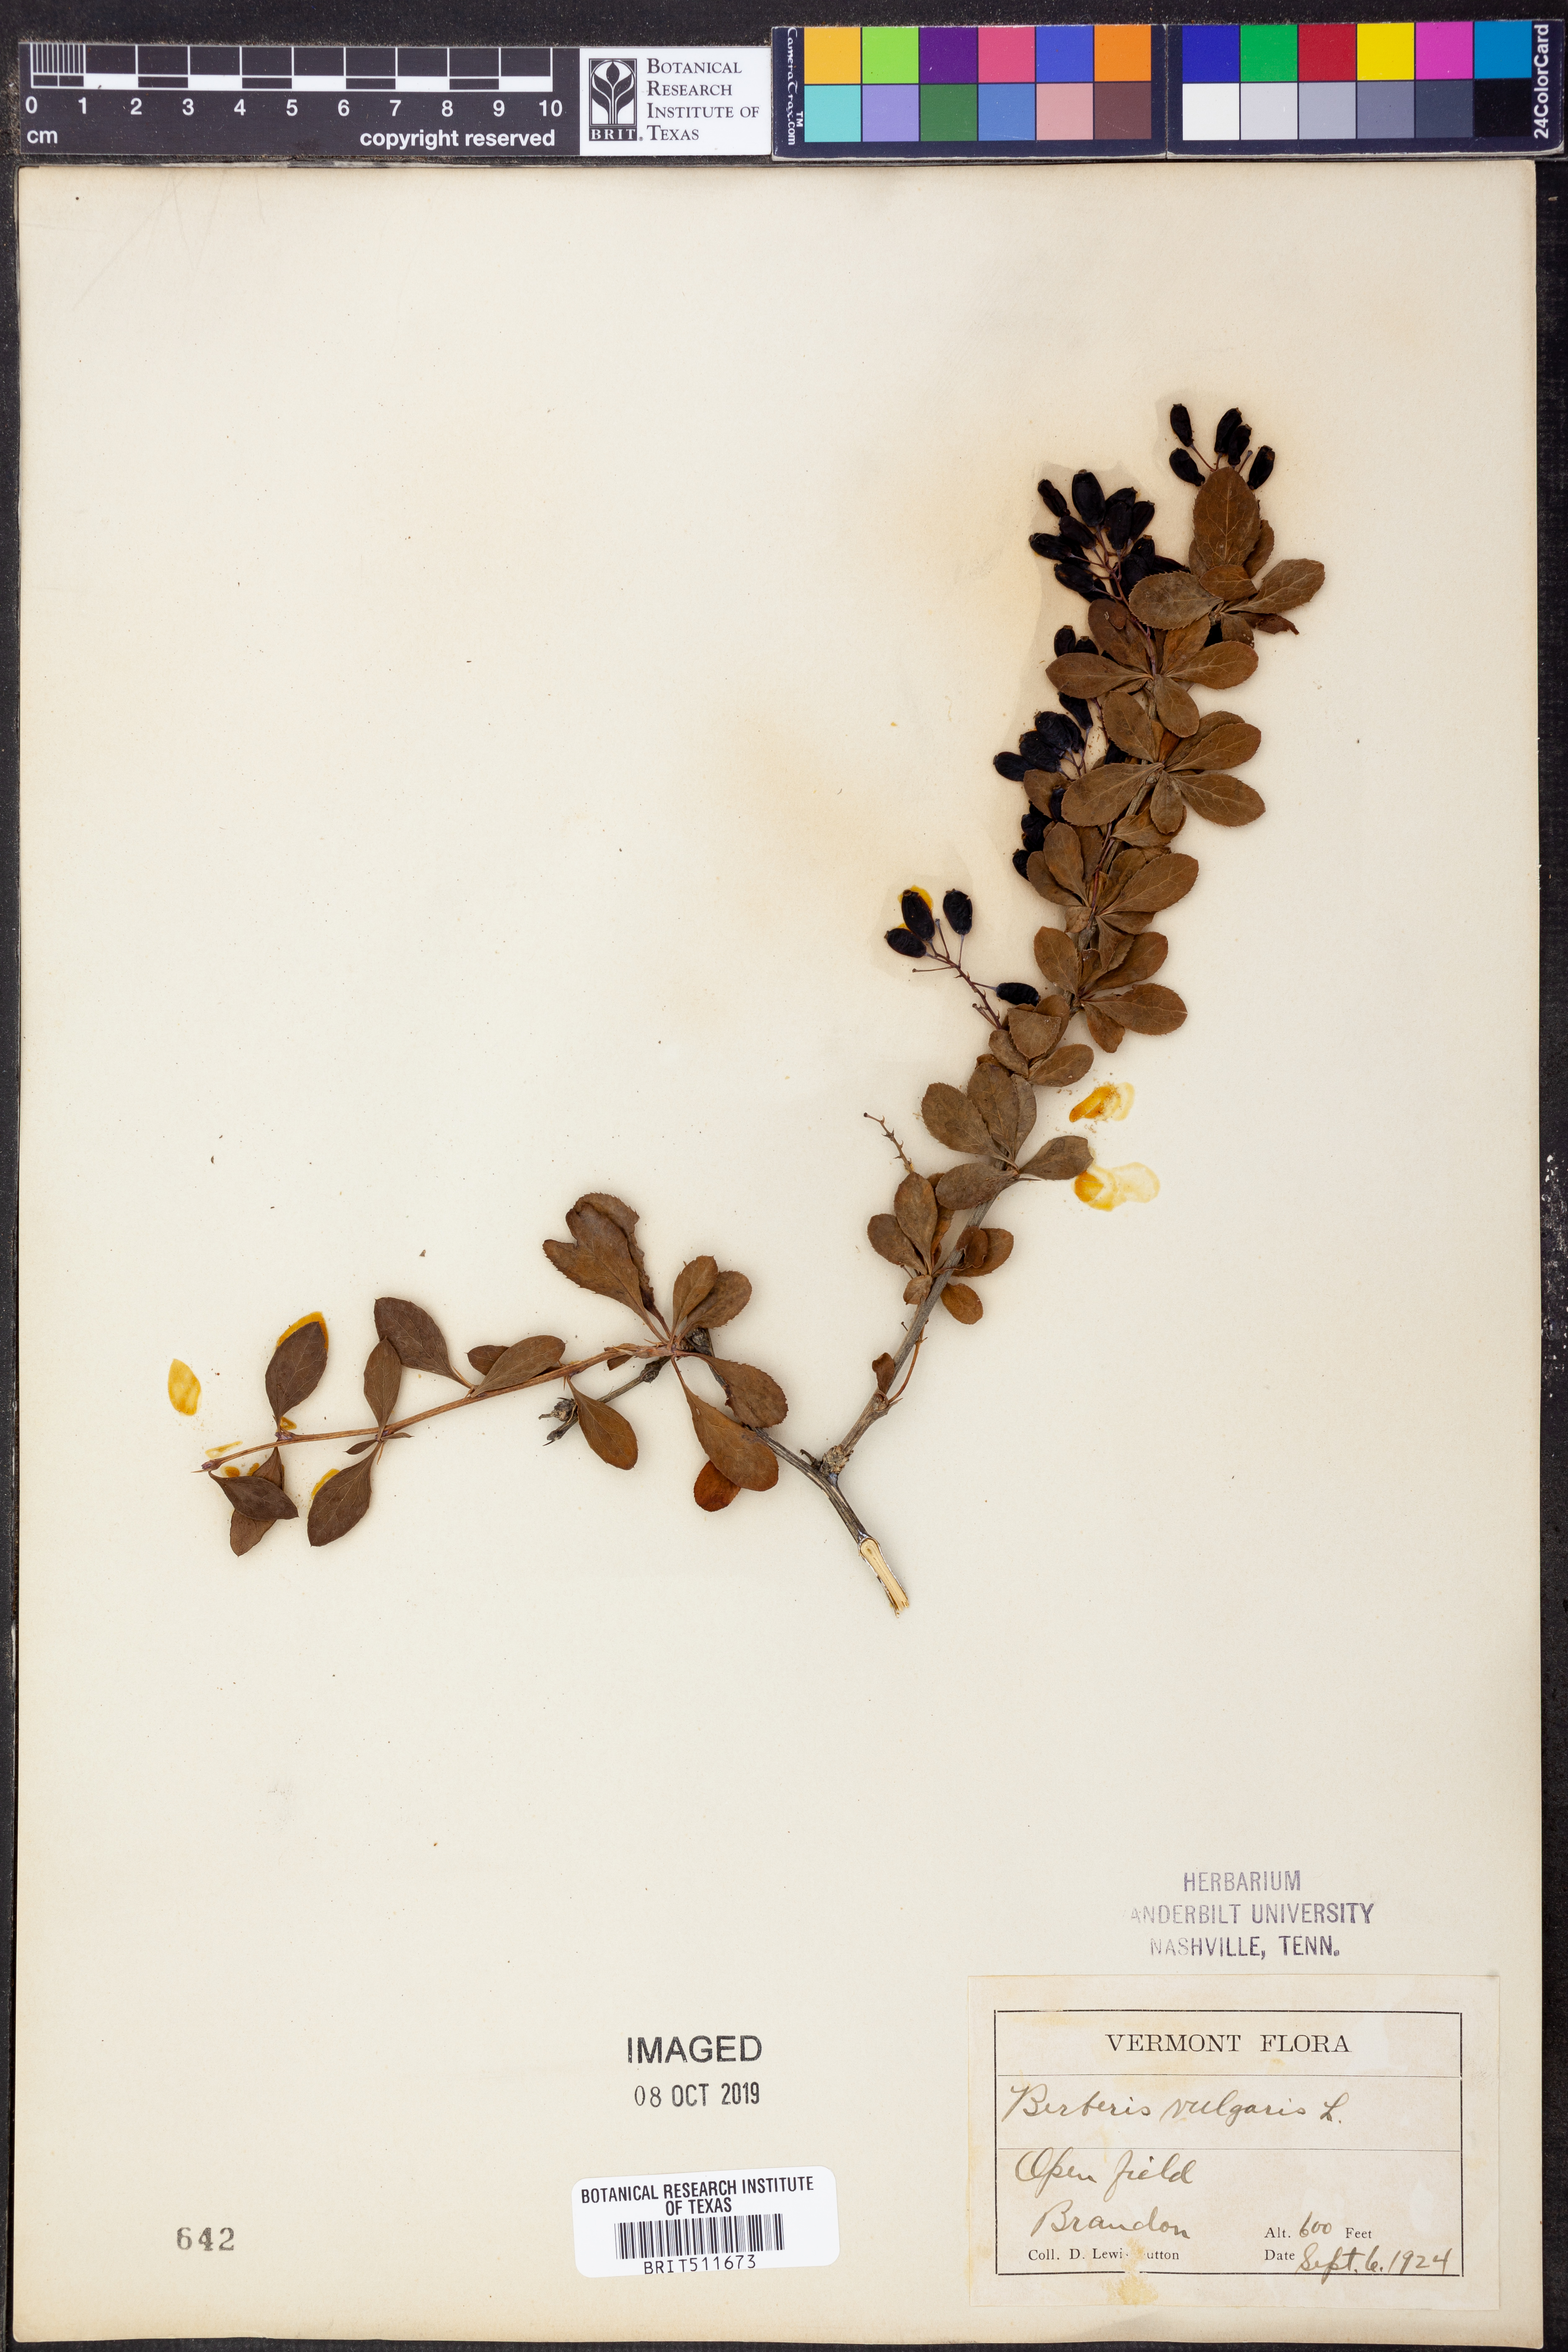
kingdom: Plantae
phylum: Tracheophyta
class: Magnoliopsida
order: Ranunculales
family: Berberidaceae
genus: Berberis
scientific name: Berberis vulgaris
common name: Barberry
